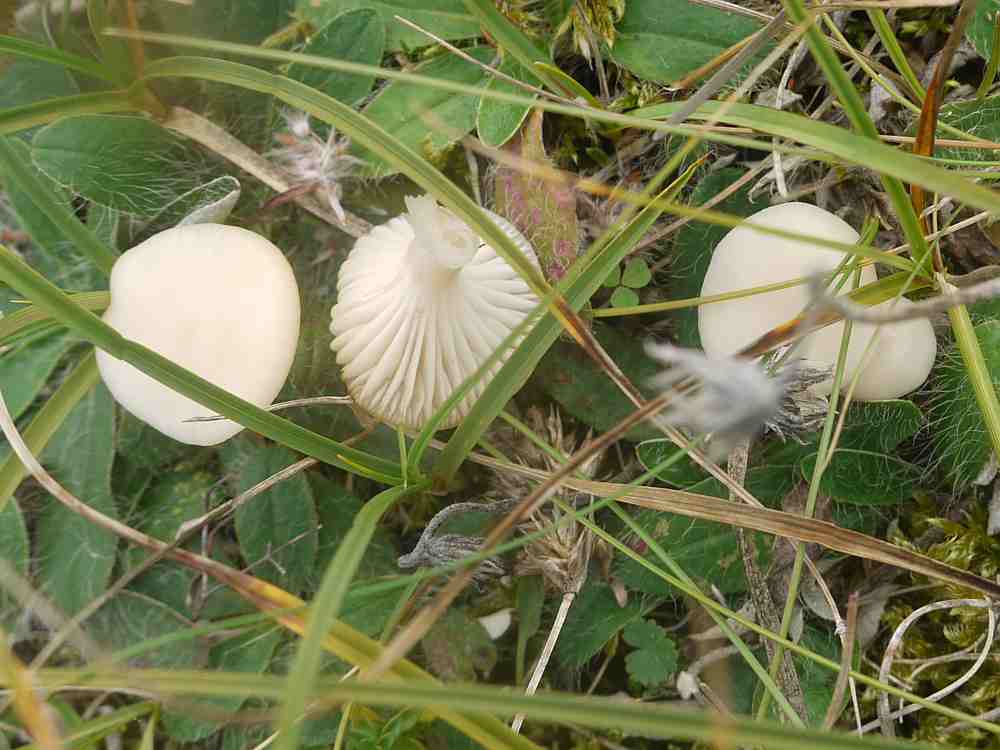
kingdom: Fungi
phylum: Basidiomycota
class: Agaricomycetes
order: Agaricales
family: Hygrophoraceae
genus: Cuphophyllus
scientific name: Cuphophyllus virgineus
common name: snehvid vokshat
